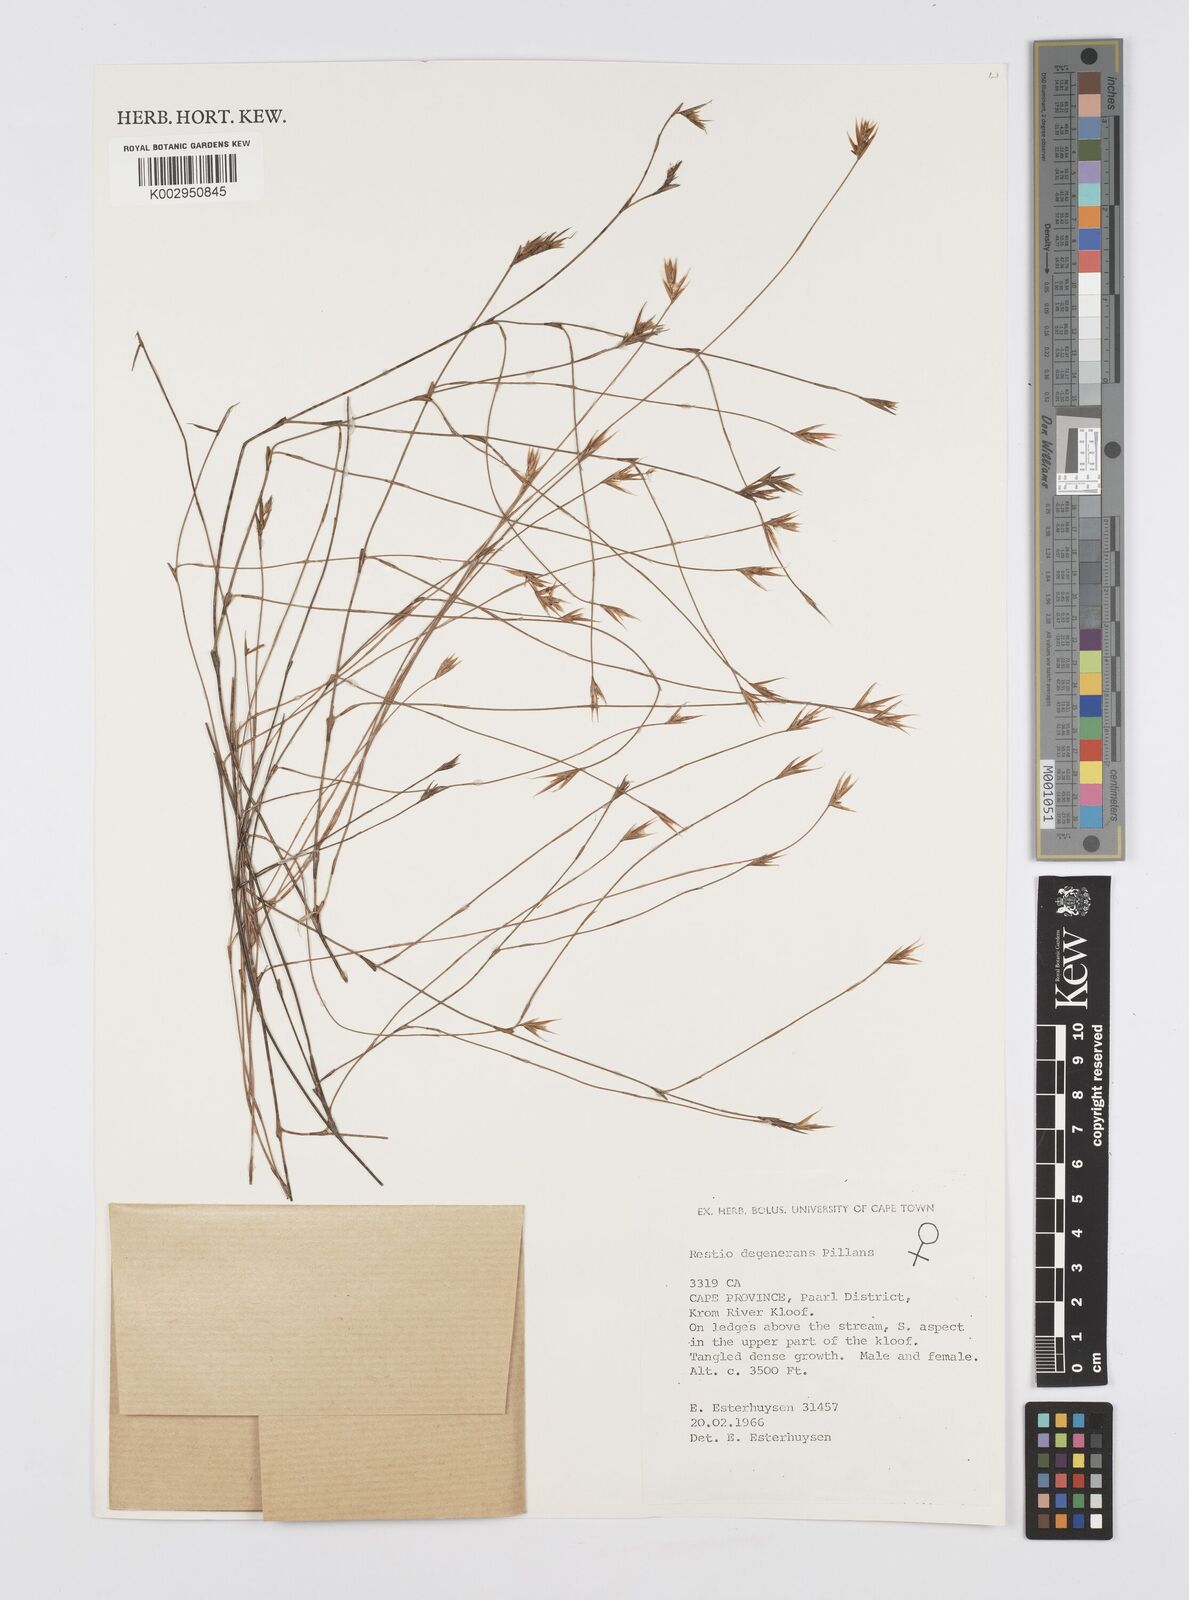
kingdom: Plantae
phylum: Tracheophyta
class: Liliopsida
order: Poales
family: Restionaceae
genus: Restio
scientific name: Restio degenerans
